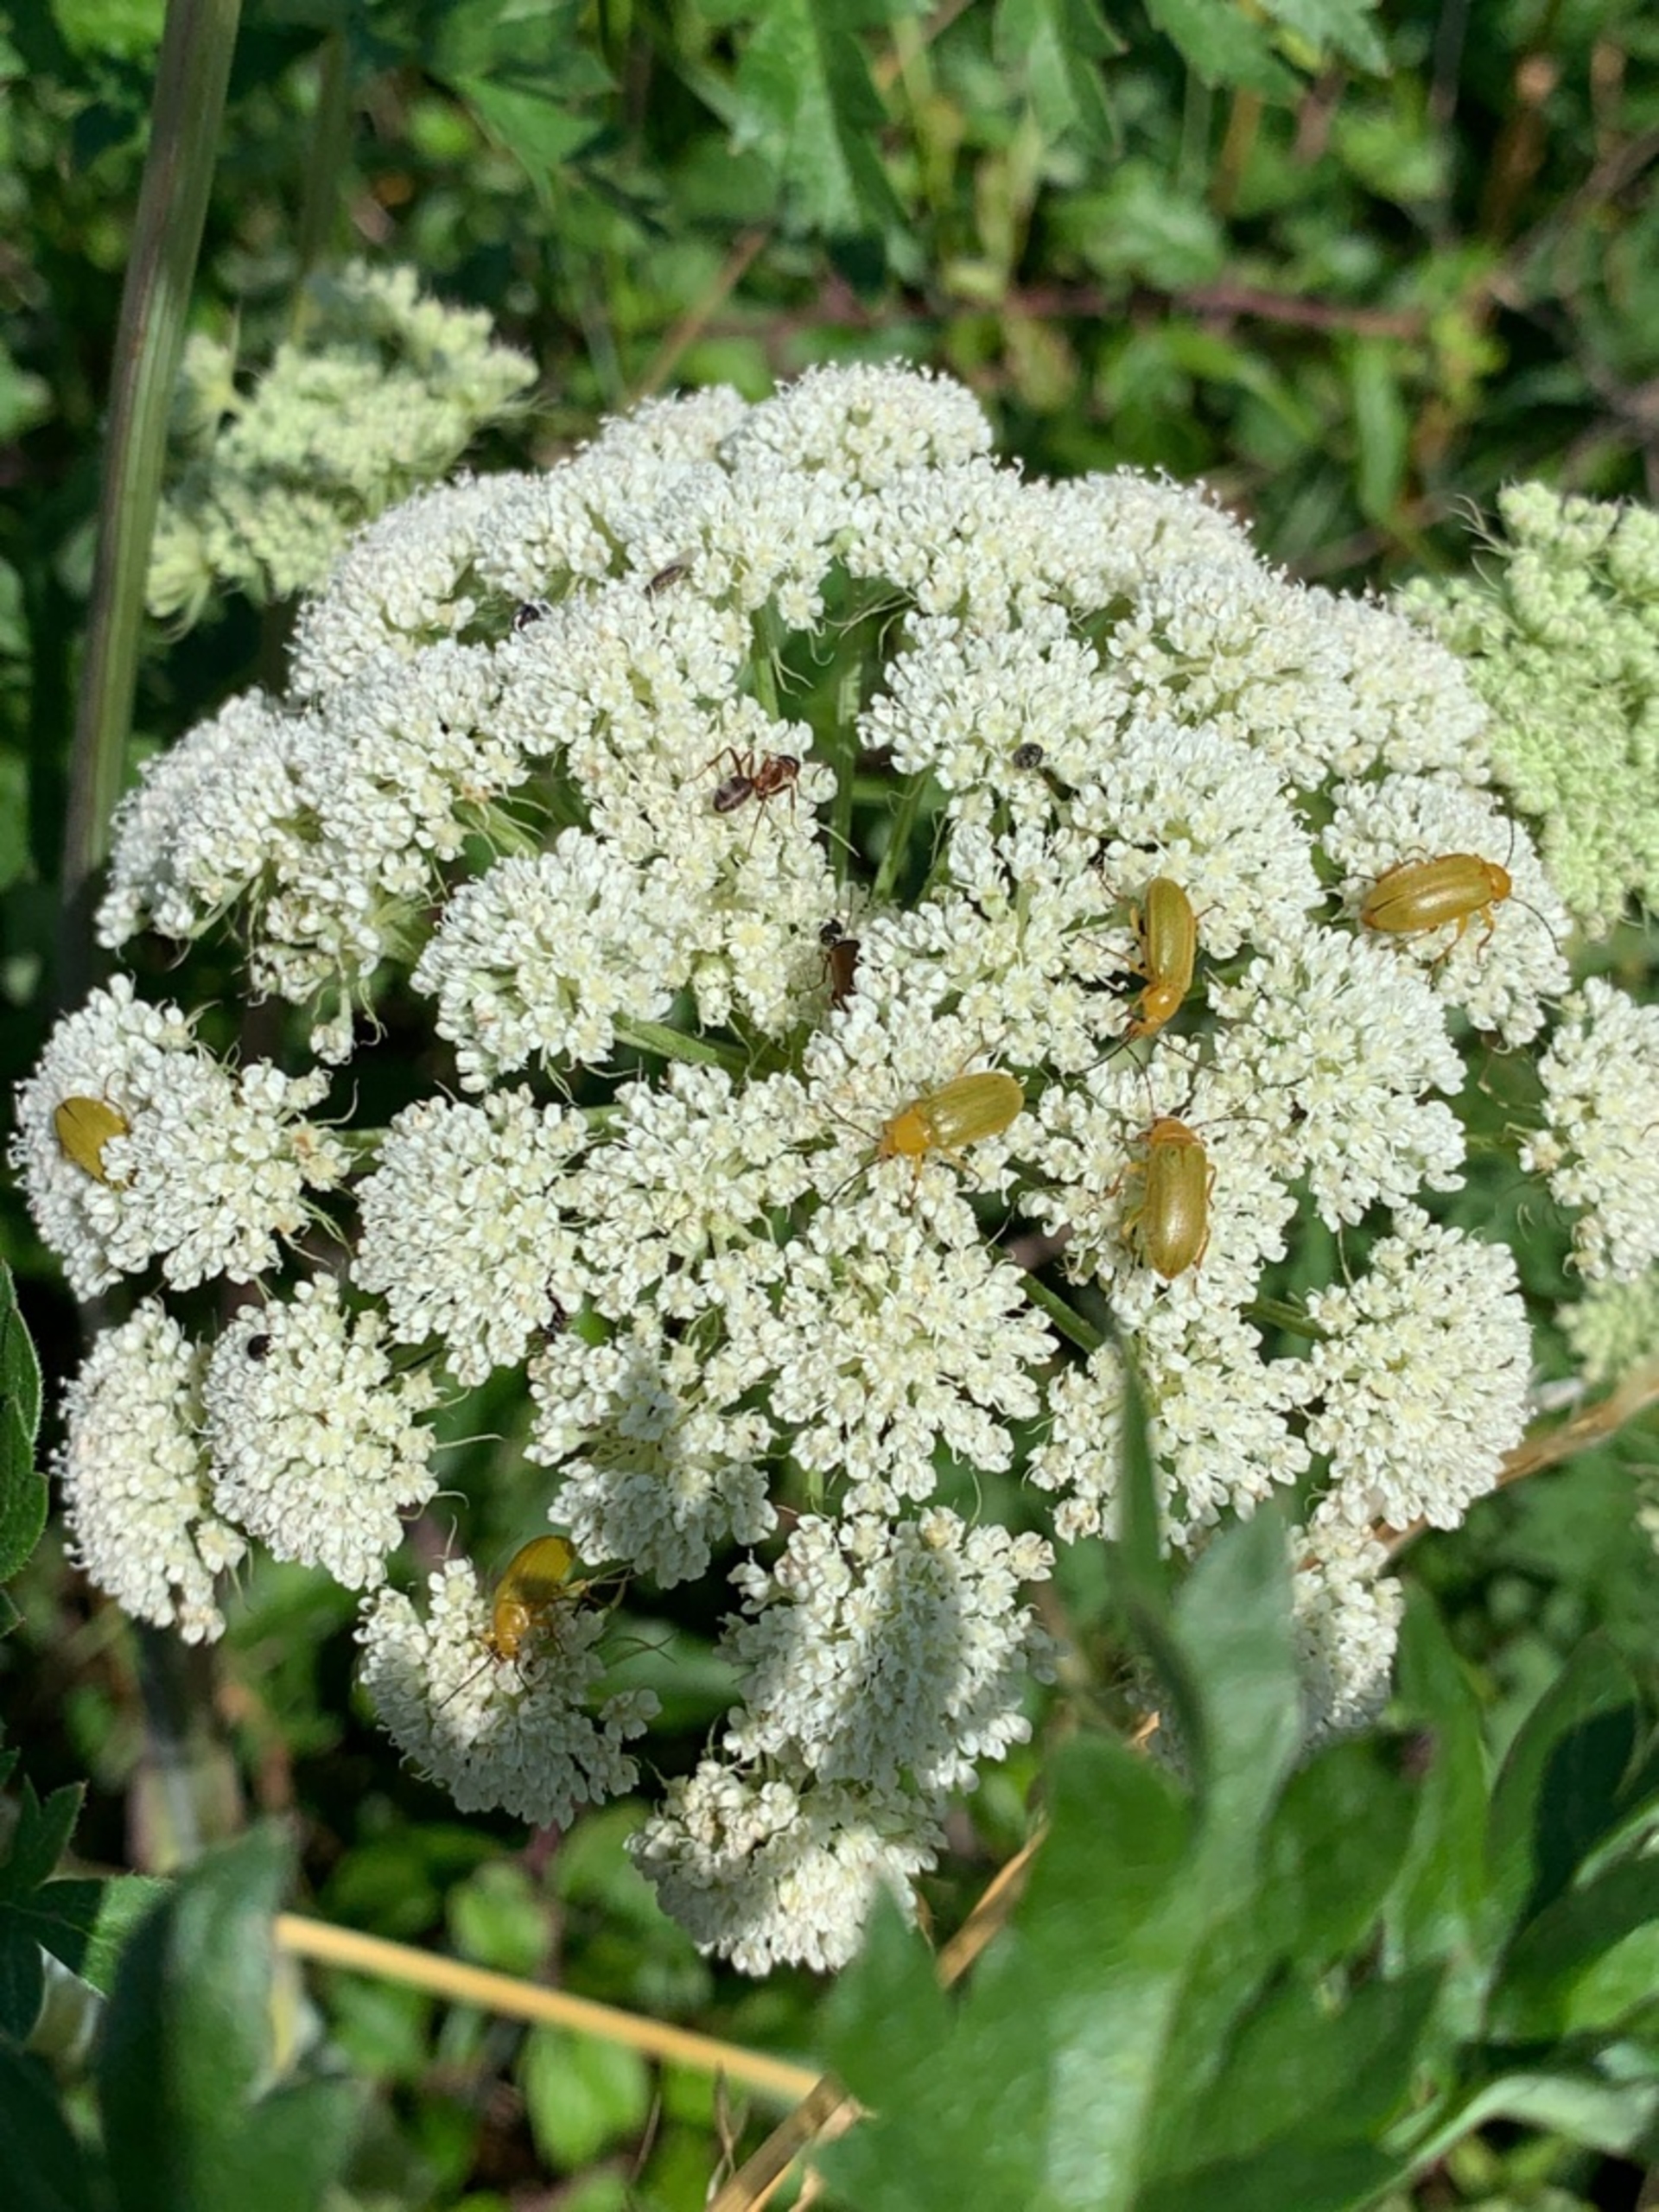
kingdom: Animalia
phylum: Arthropoda
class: Insecta
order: Coleoptera
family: Tenebrionidae
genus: Cteniopus
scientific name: Cteniopus sulphureus
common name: Svovlgul skyggebille
